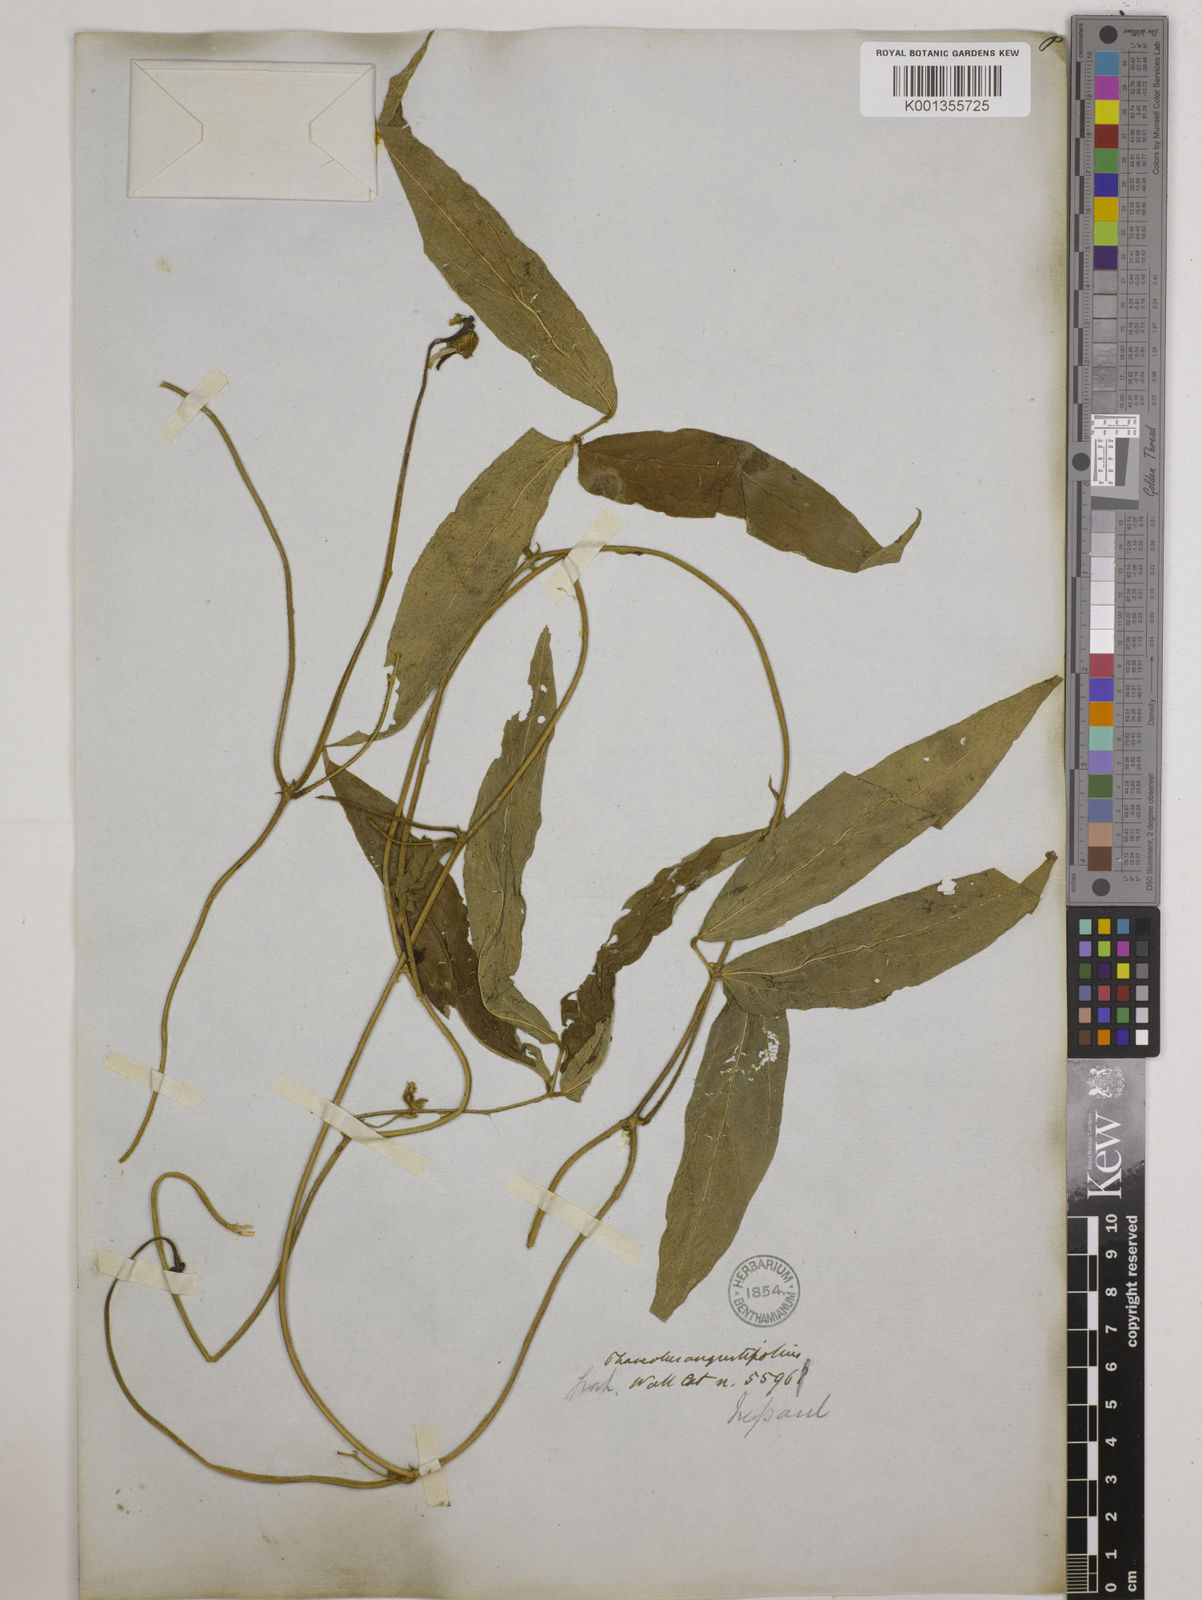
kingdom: Plantae
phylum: Tracheophyta
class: Magnoliopsida
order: Fabales
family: Fabaceae
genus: Vigna
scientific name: Vigna vexillata
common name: Zombi pea
